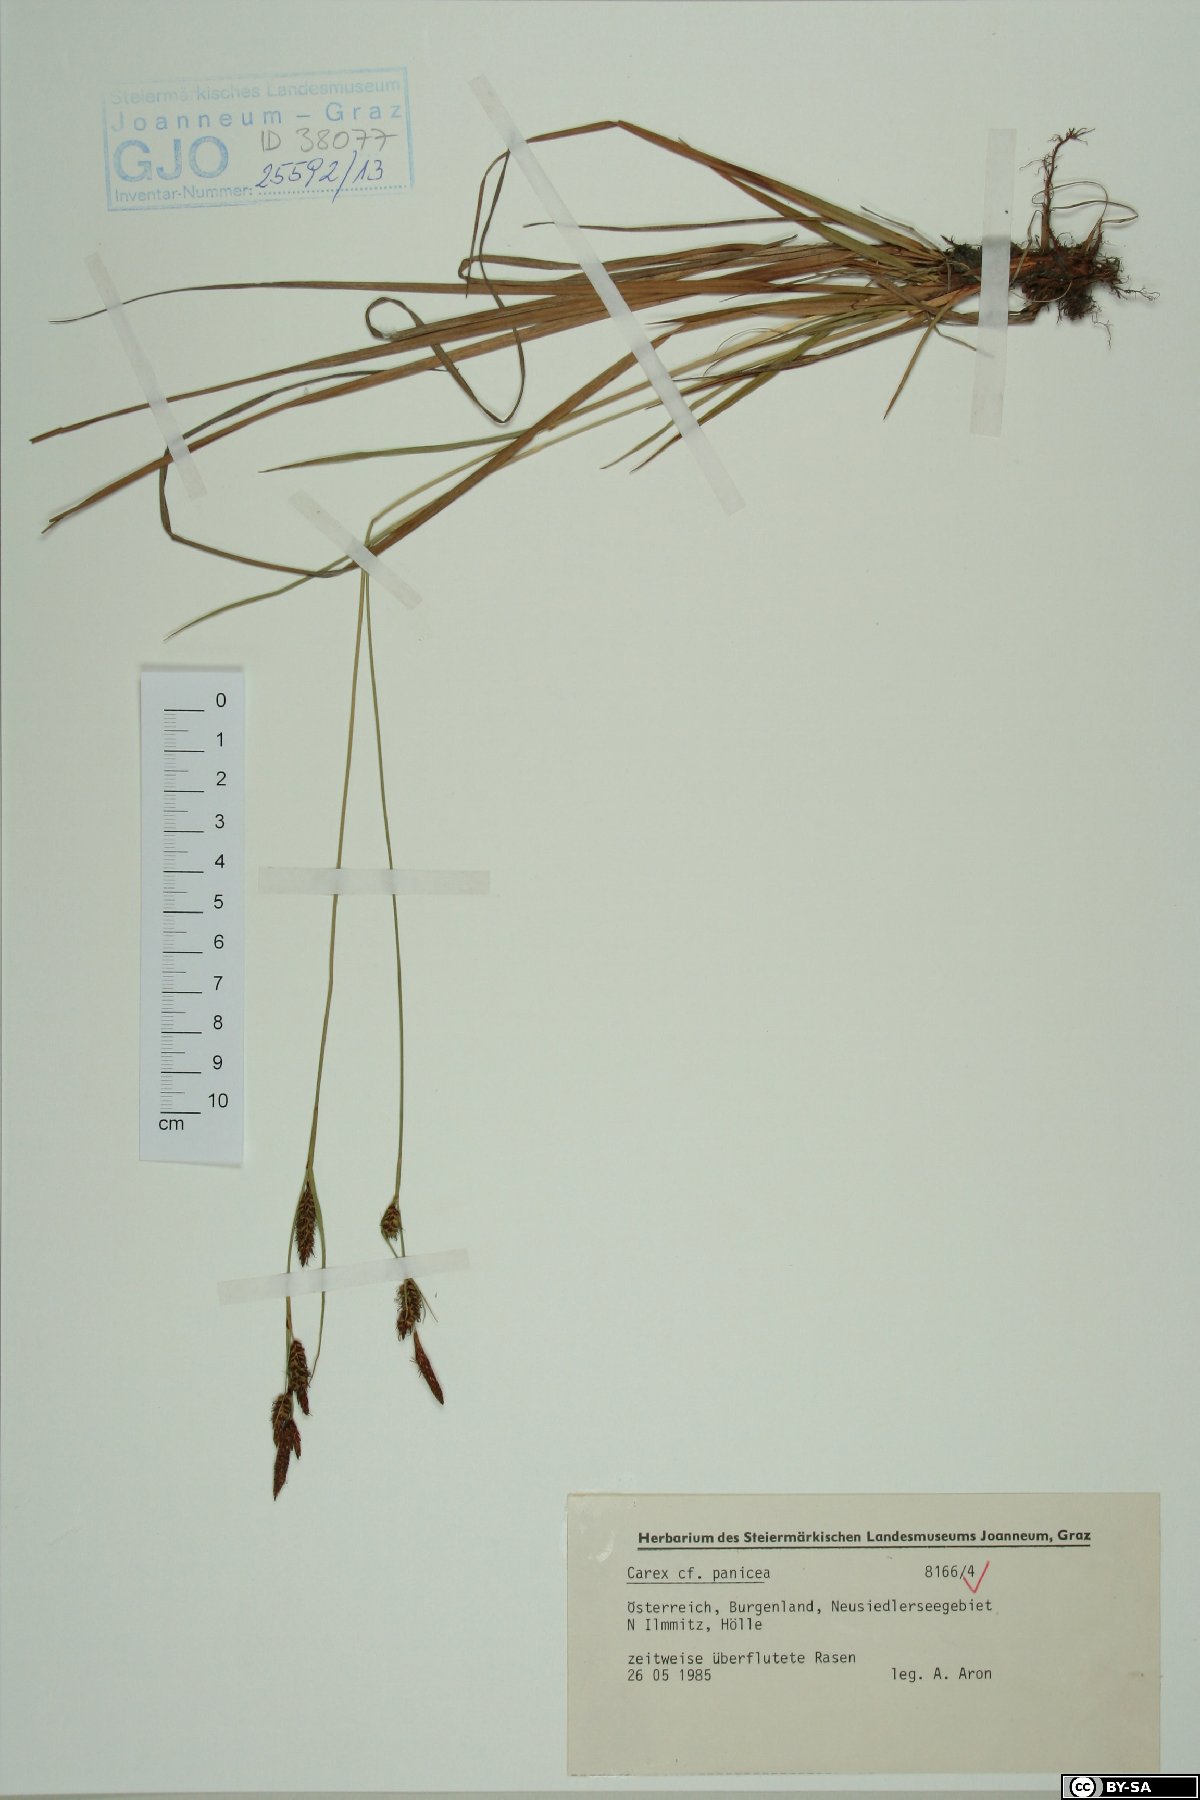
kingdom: Plantae
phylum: Tracheophyta
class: Liliopsida
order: Poales
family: Cyperaceae
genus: Carex
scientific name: Carex panicea
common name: Carnation sedge
